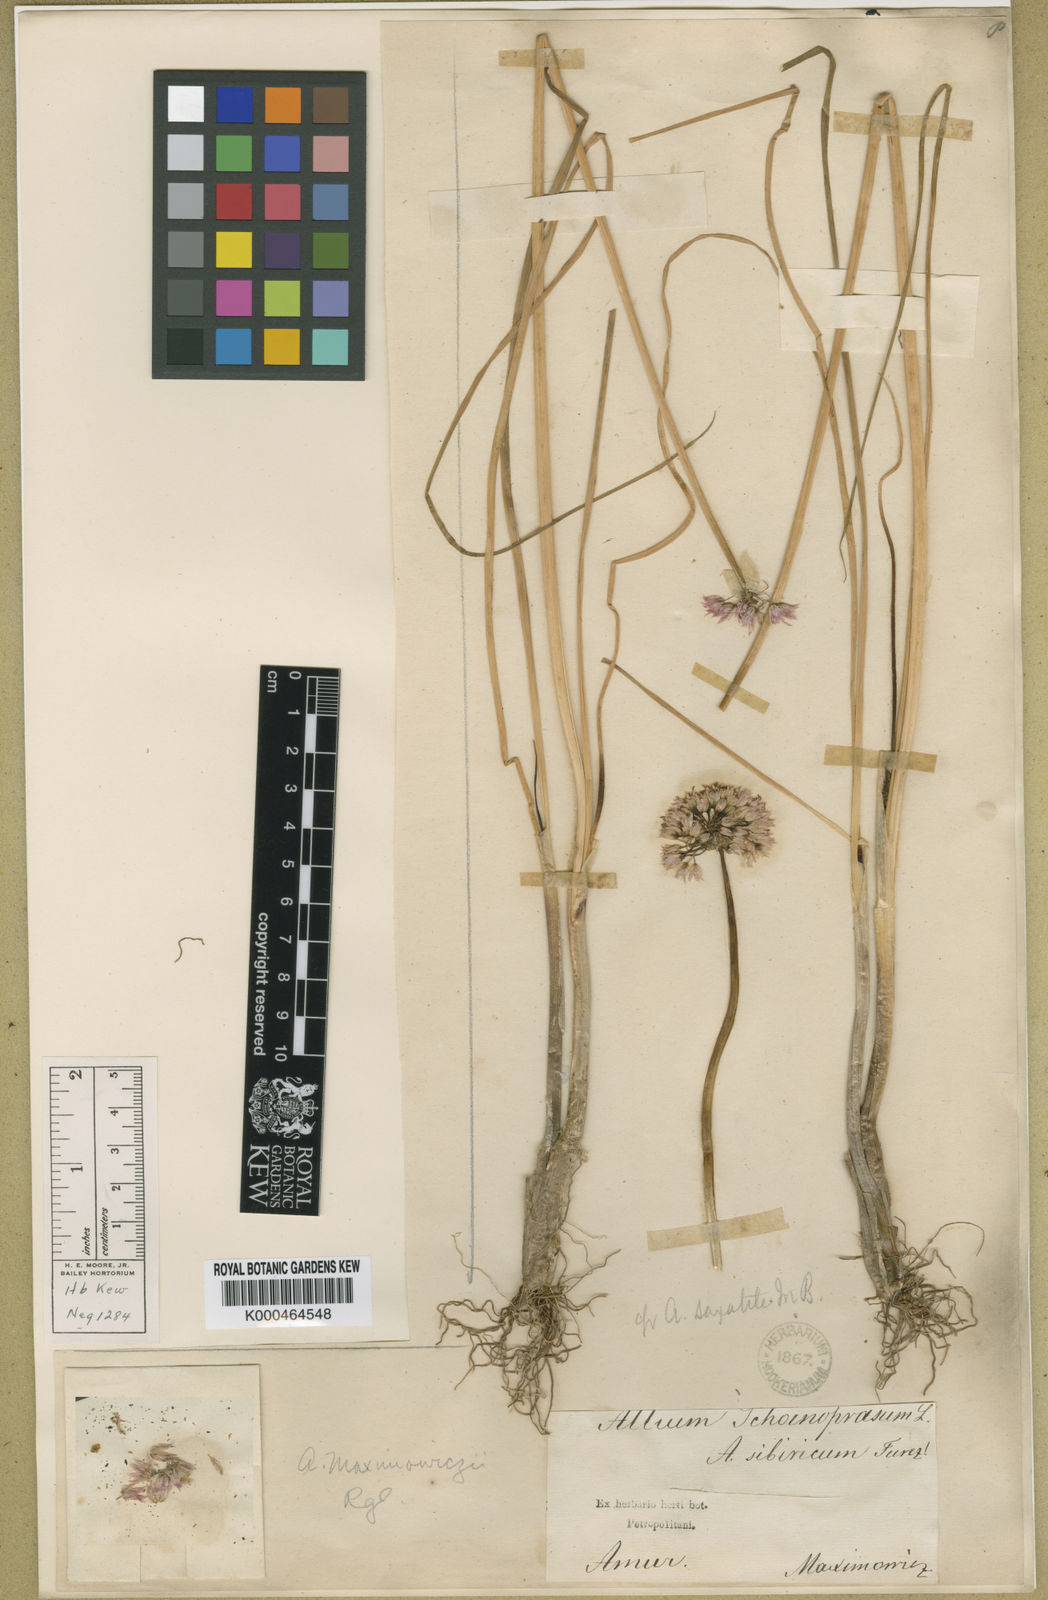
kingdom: Plantae
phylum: Tracheophyta
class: Liliopsida
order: Asparagales
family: Amaryllidaceae
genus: Allium
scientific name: Allium maximowiczii
